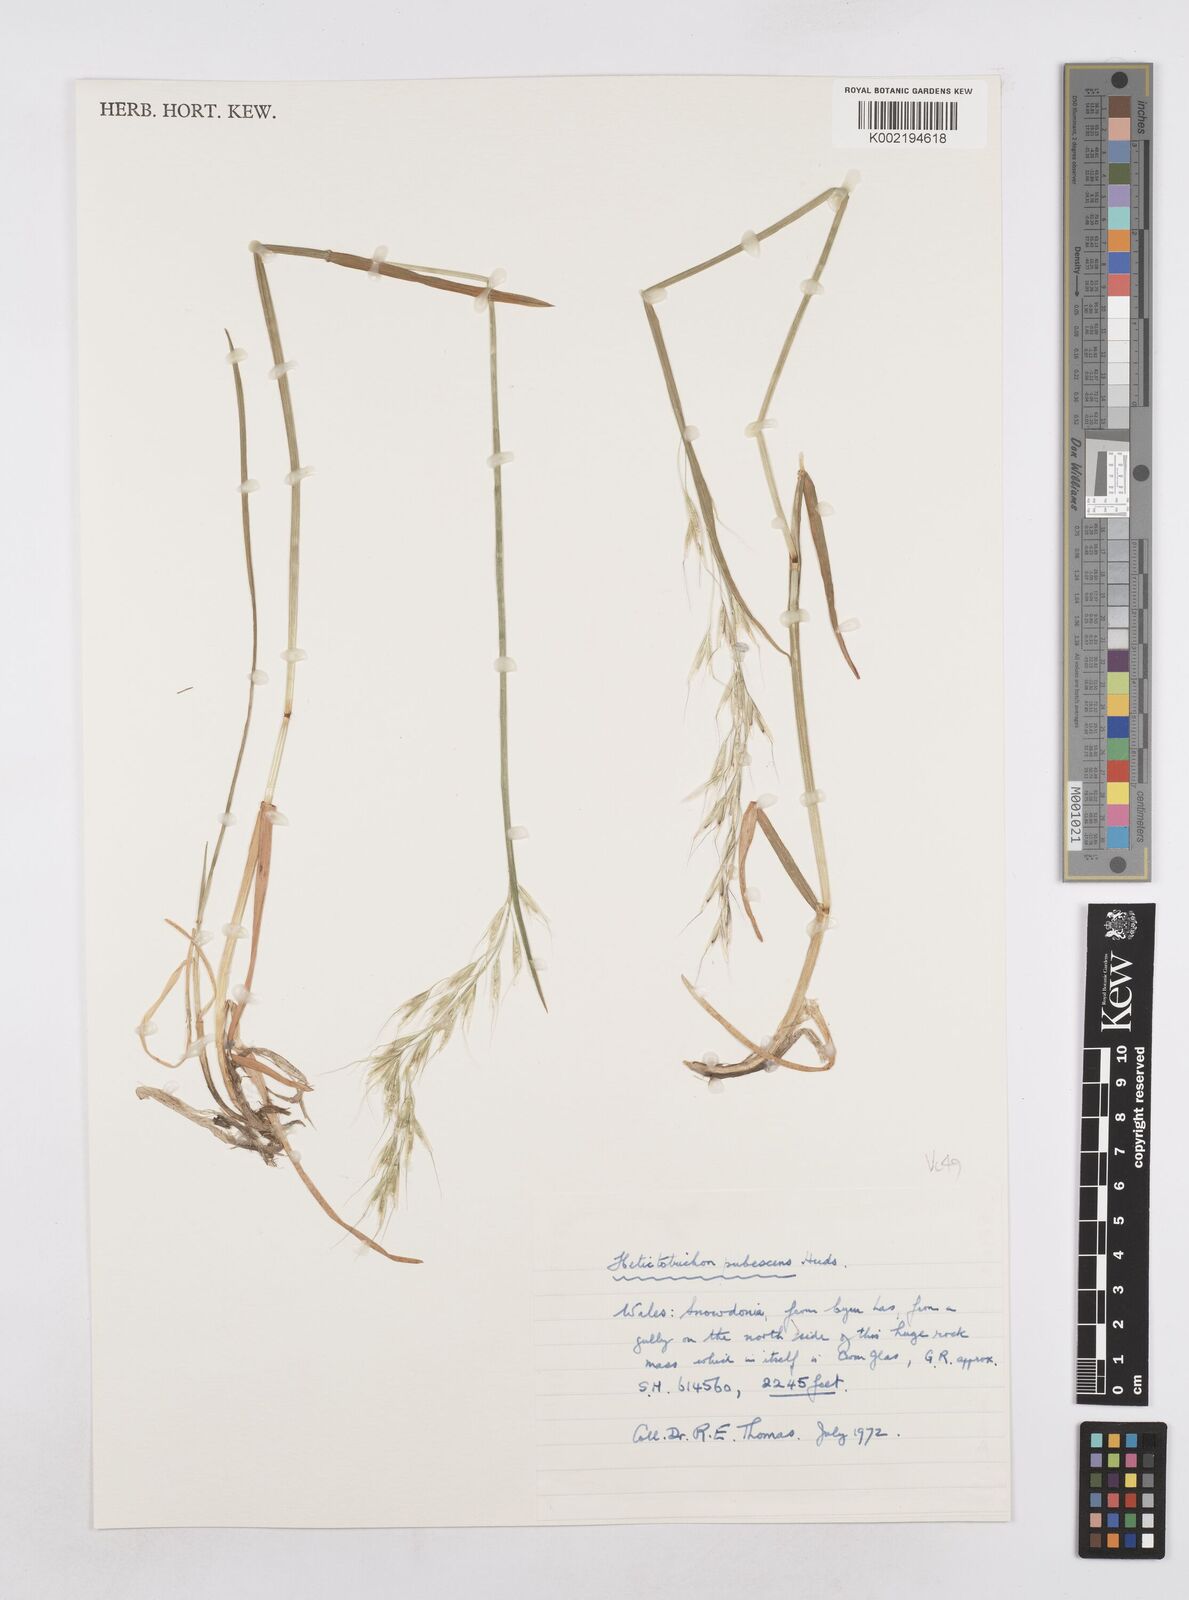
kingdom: Plantae
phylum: Tracheophyta
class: Liliopsida
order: Poales
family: Poaceae
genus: Avenula
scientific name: Avenula pubescens
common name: Downy alpine oatgrass
